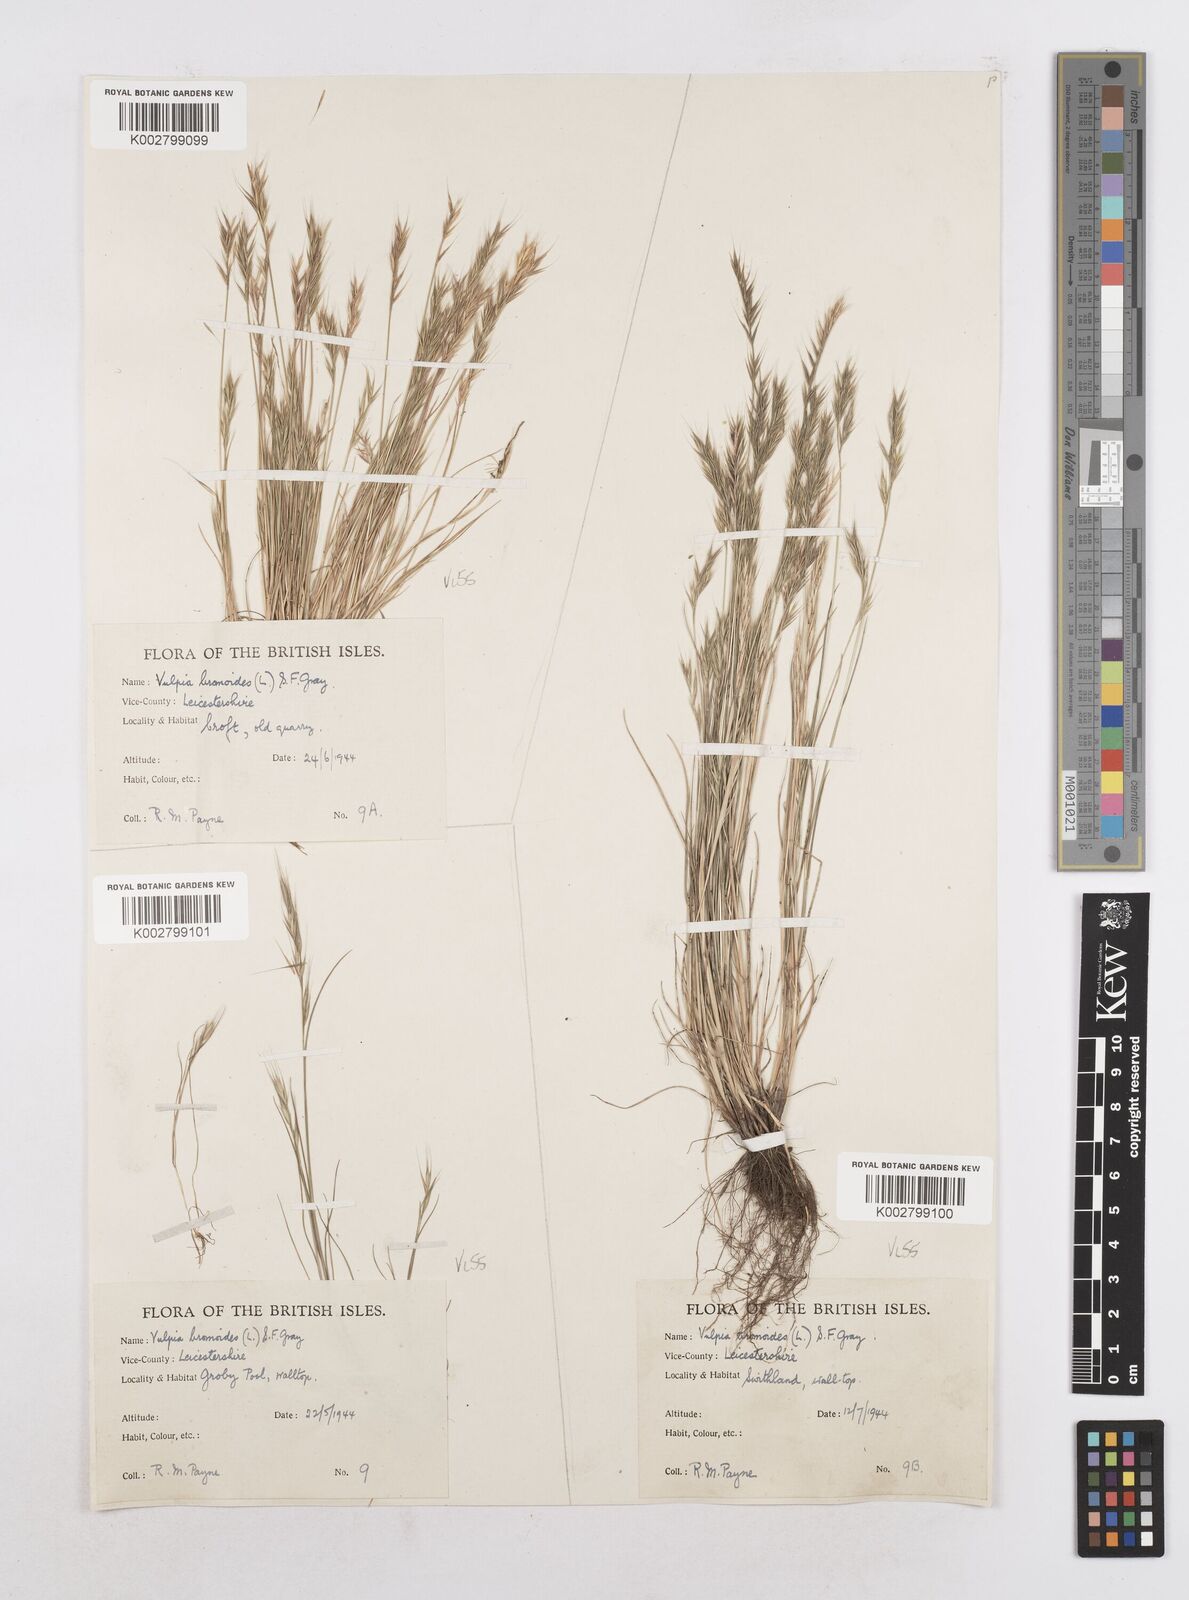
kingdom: Plantae
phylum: Tracheophyta
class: Liliopsida
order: Poales
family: Poaceae
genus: Festuca
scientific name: Festuca bromoides
